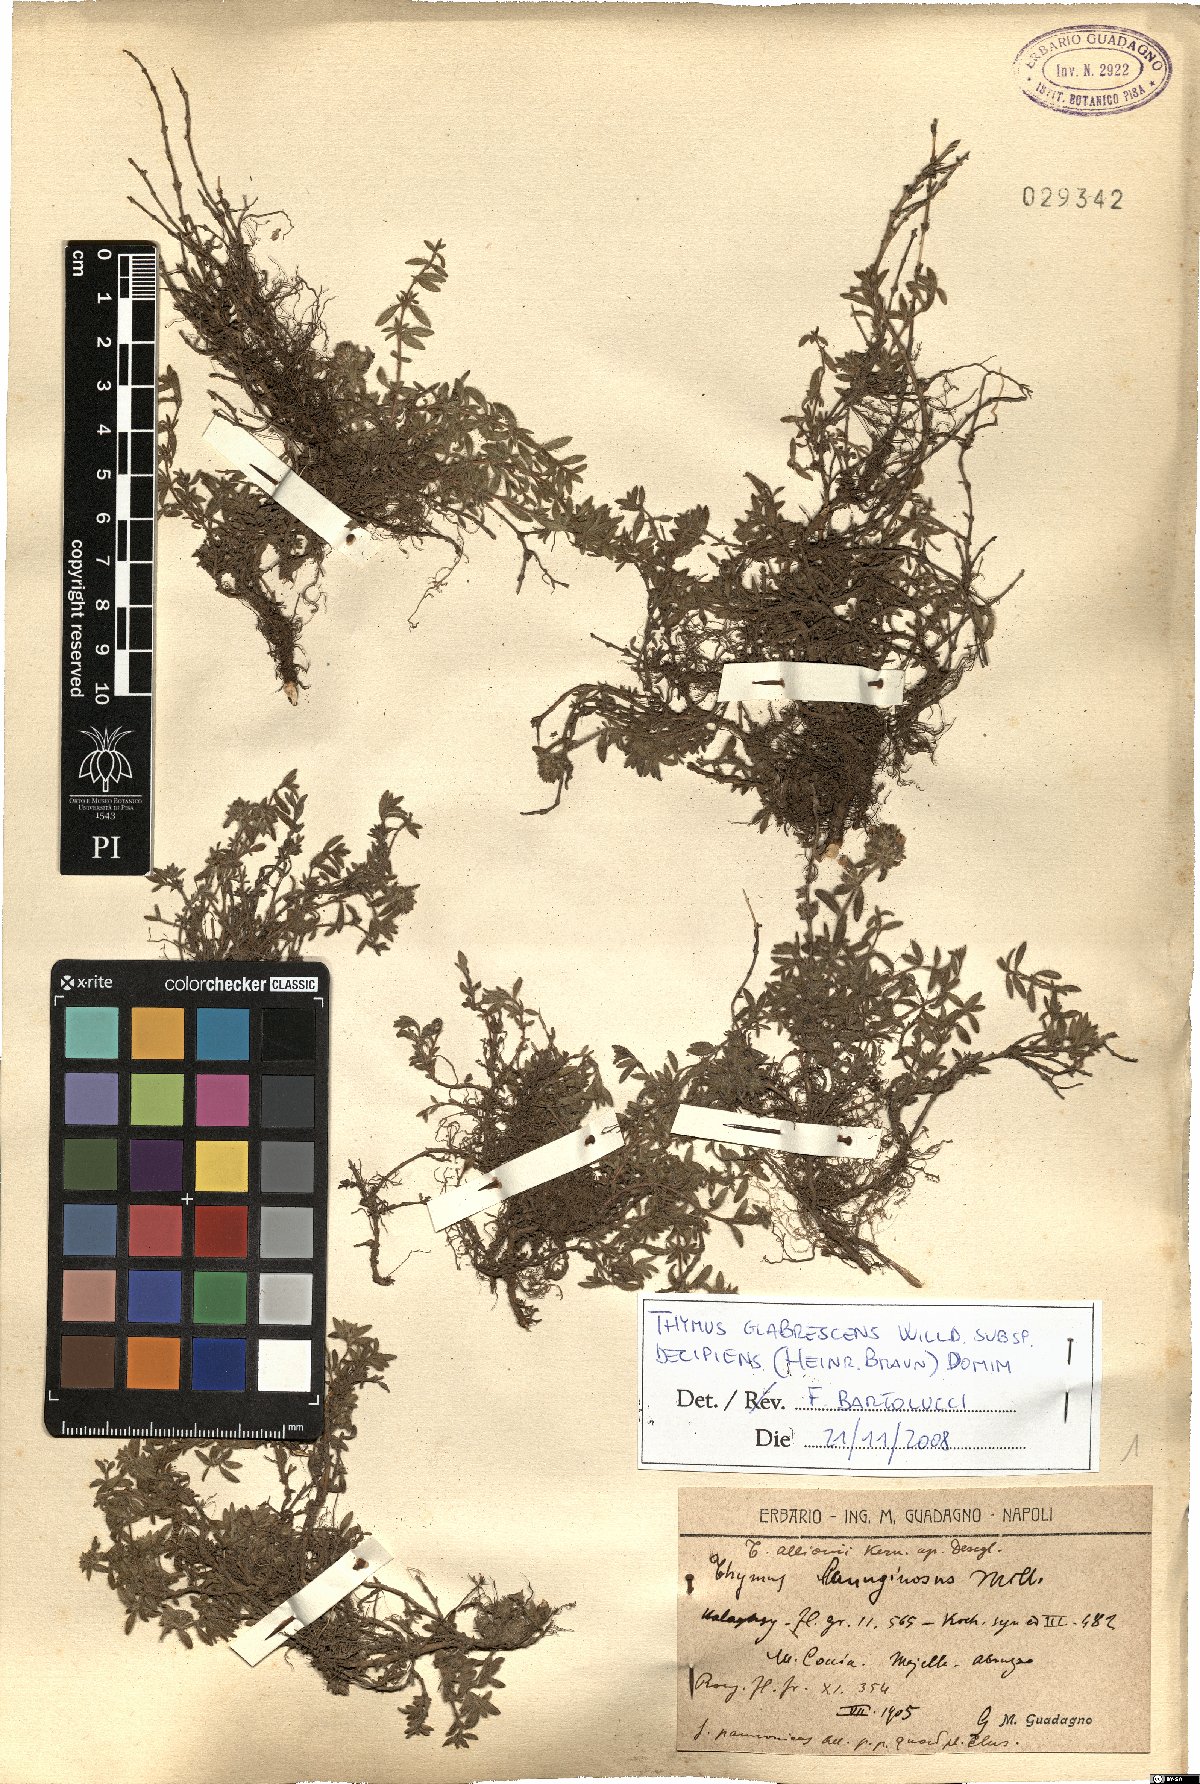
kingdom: Plantae
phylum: Tracheophyta
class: Magnoliopsida
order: Lamiales
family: Lamiaceae
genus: Thymus
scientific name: Thymus oenipontanus
